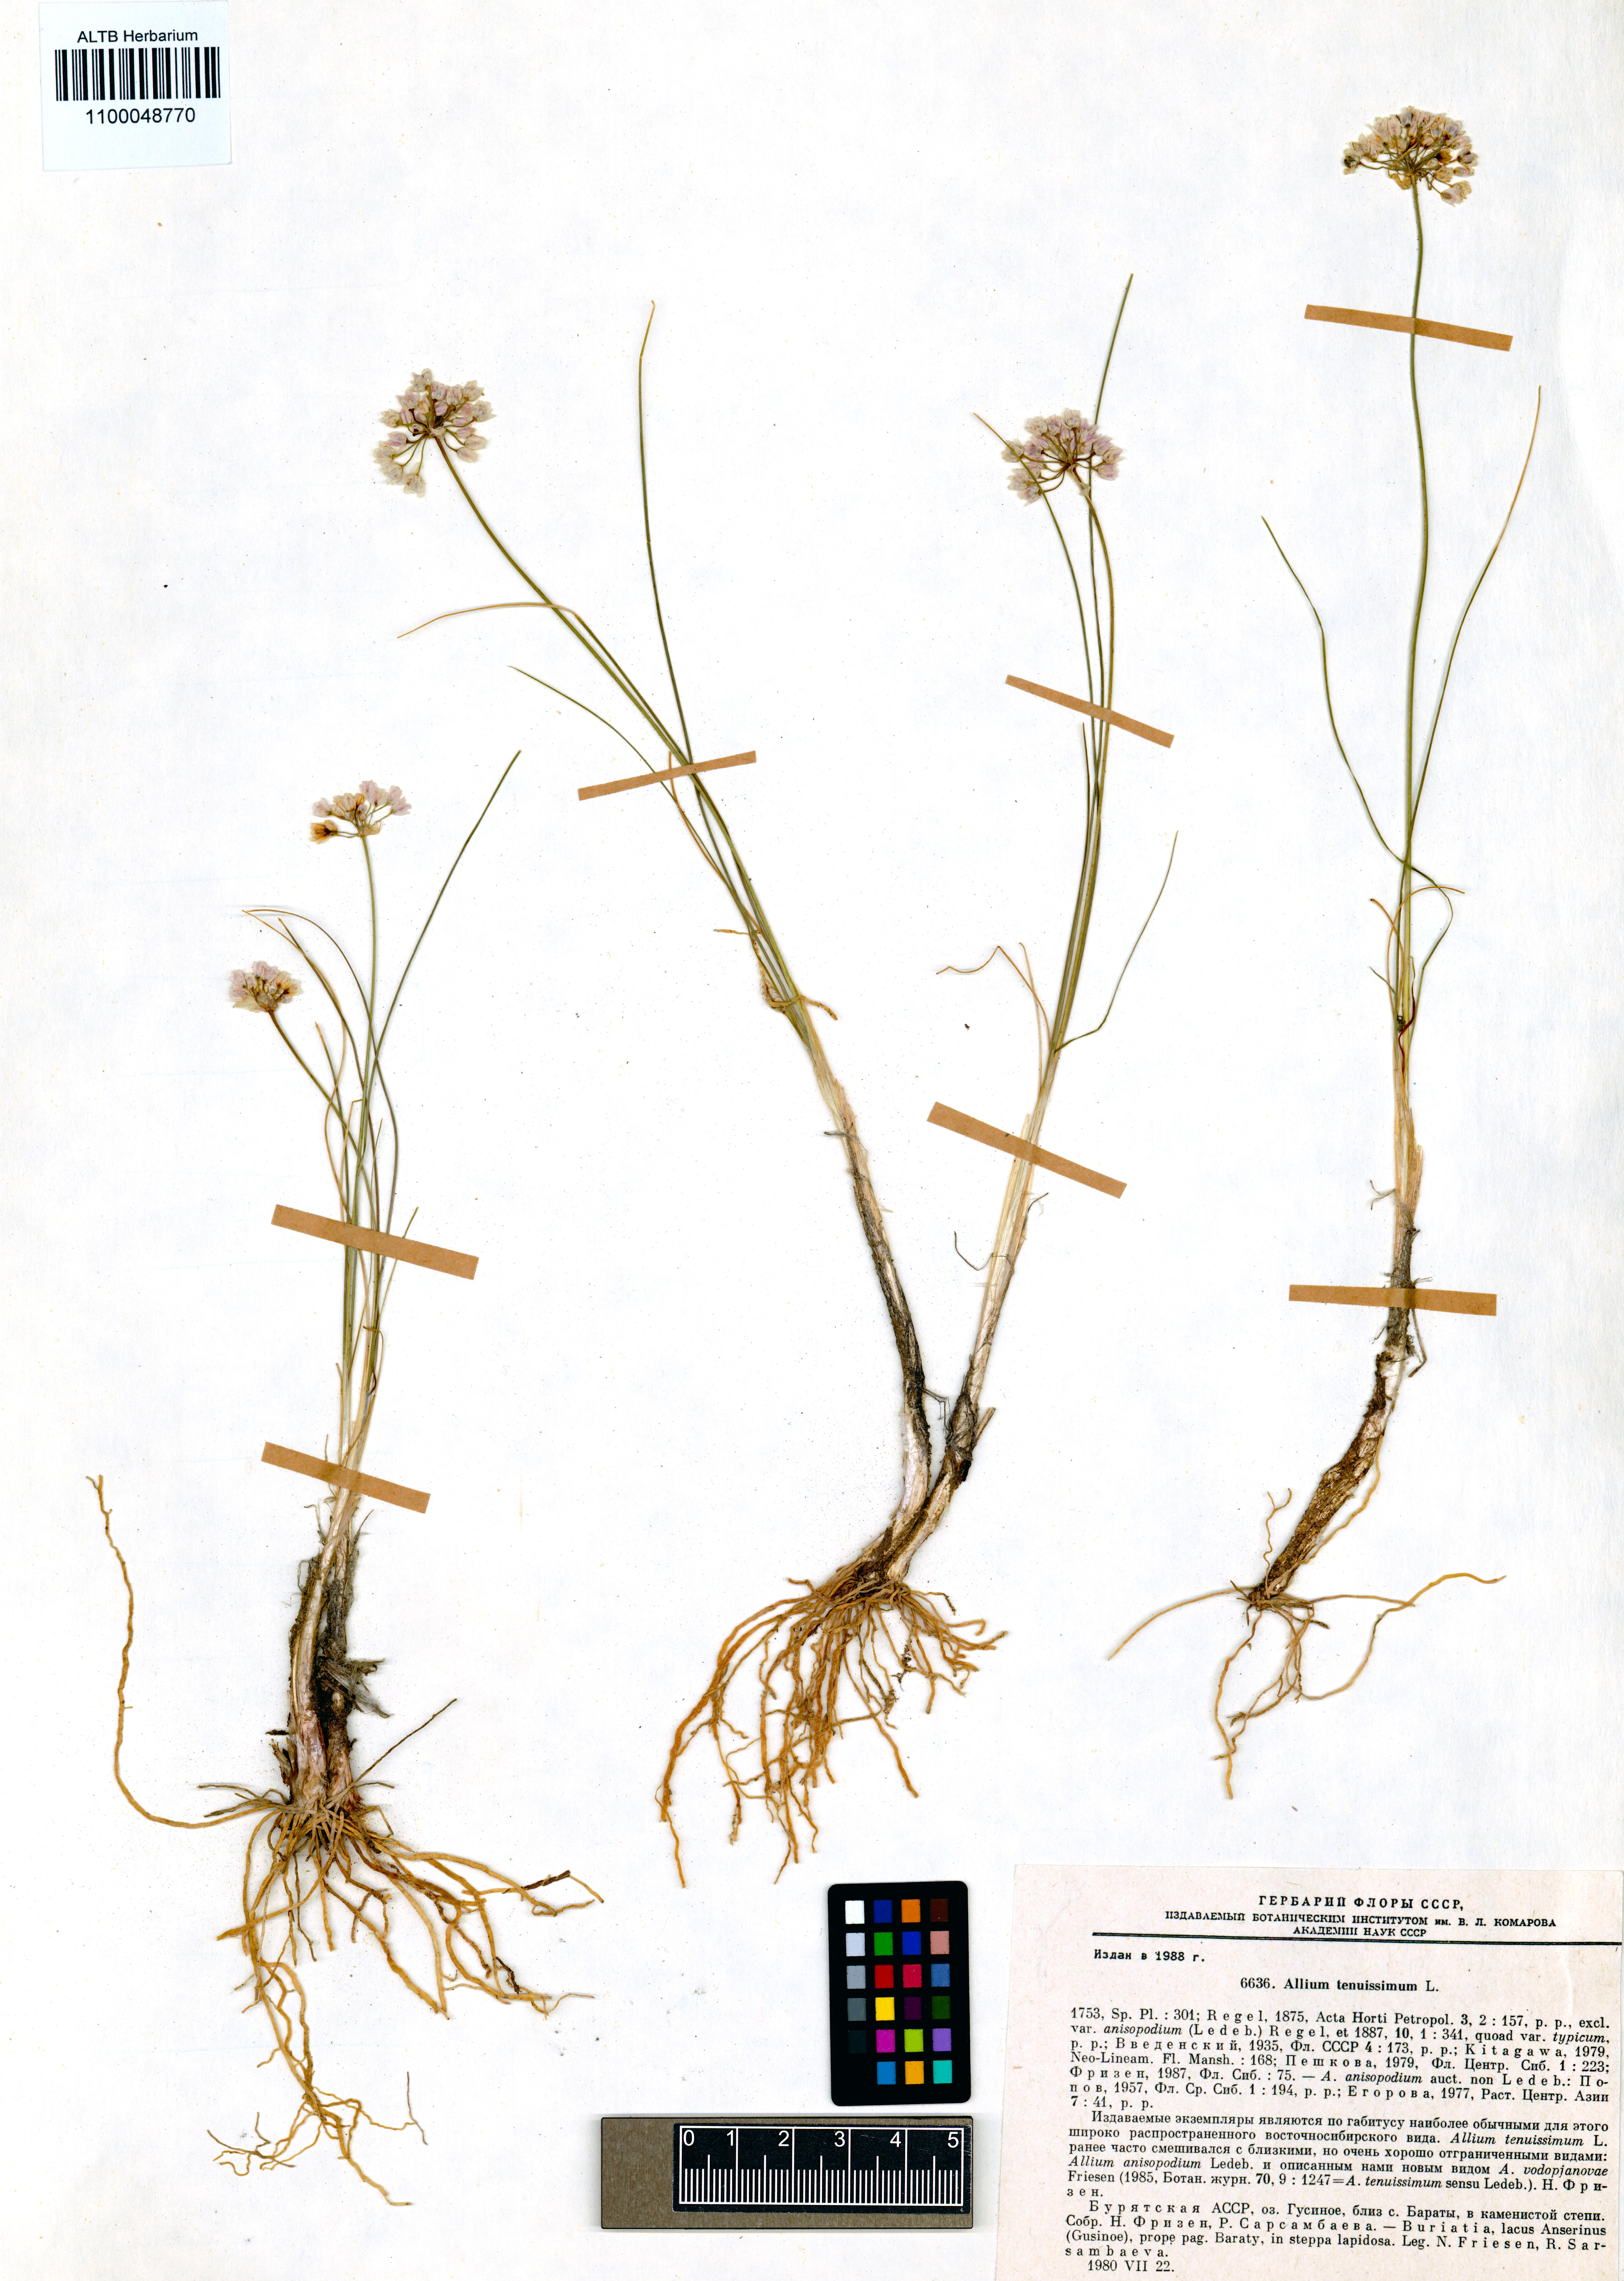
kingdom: Plantae
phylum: Tracheophyta
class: Liliopsida
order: Asparagales
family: Amaryllidaceae
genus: Allium
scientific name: Allium tenuissimum
